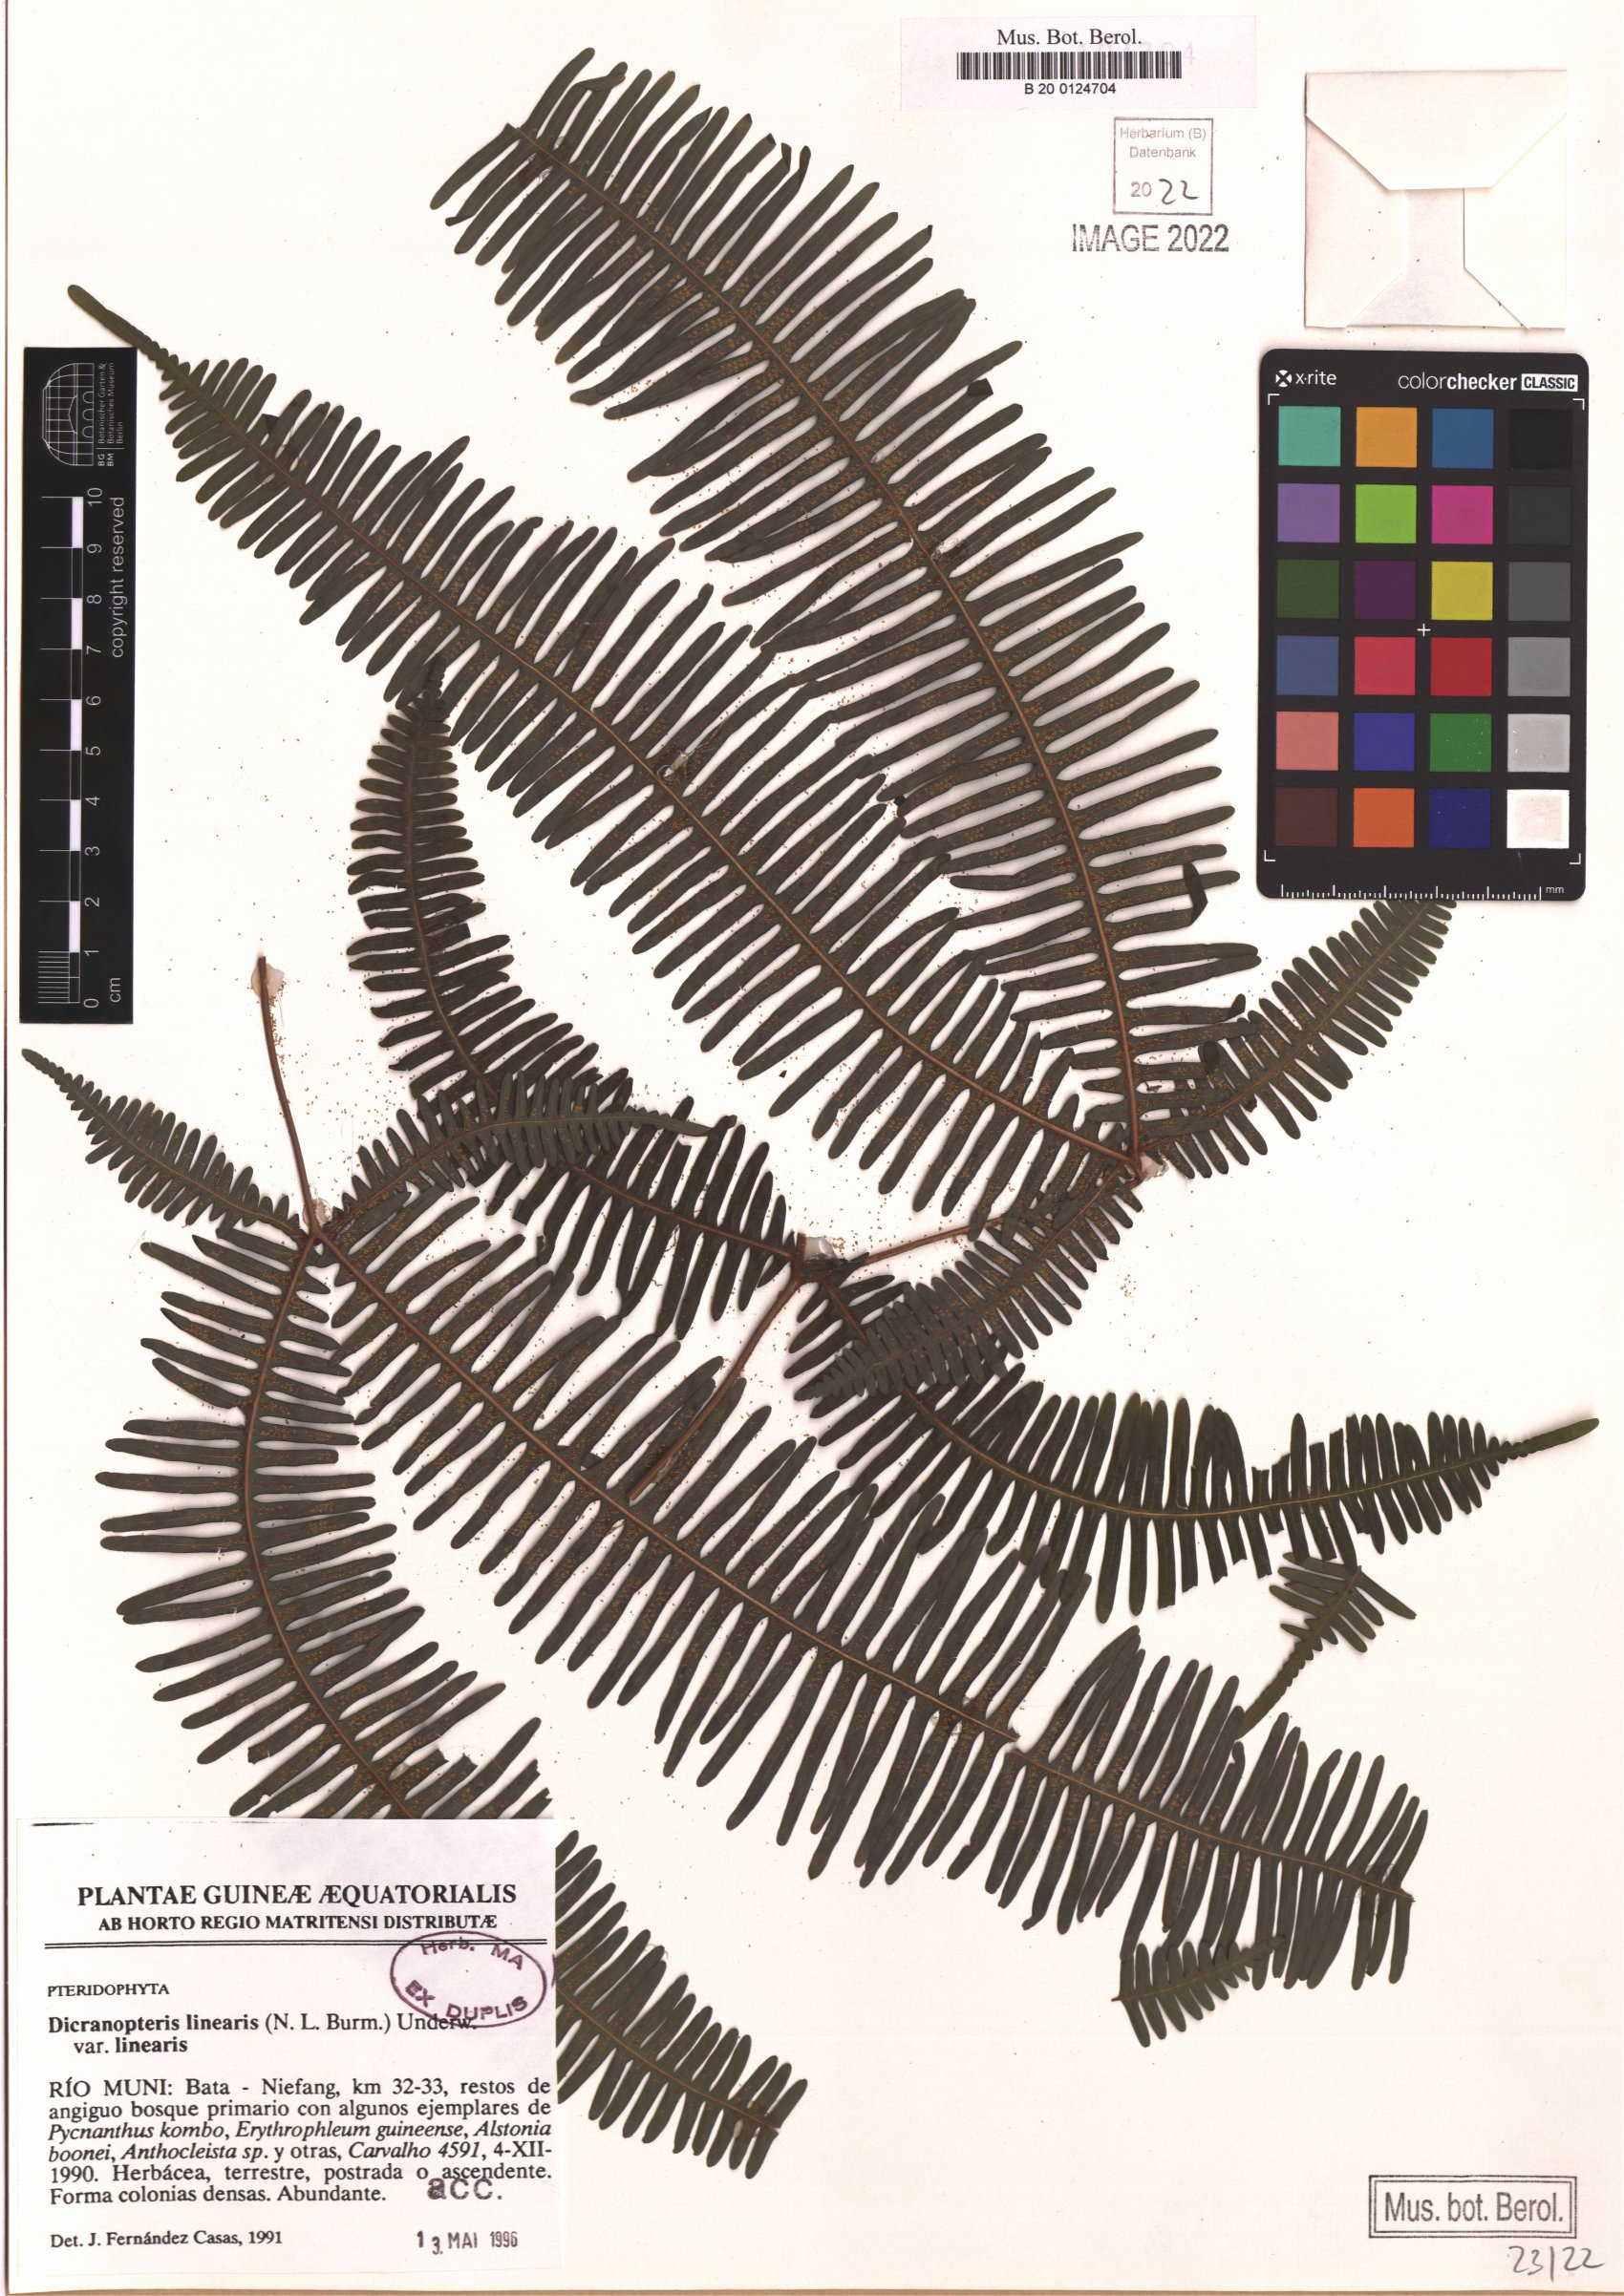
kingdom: Plantae
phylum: Tracheophyta
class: Polypodiopsida
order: Gleicheniales
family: Gleicheniaceae
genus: Dicranopteris
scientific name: Dicranopteris linearis
